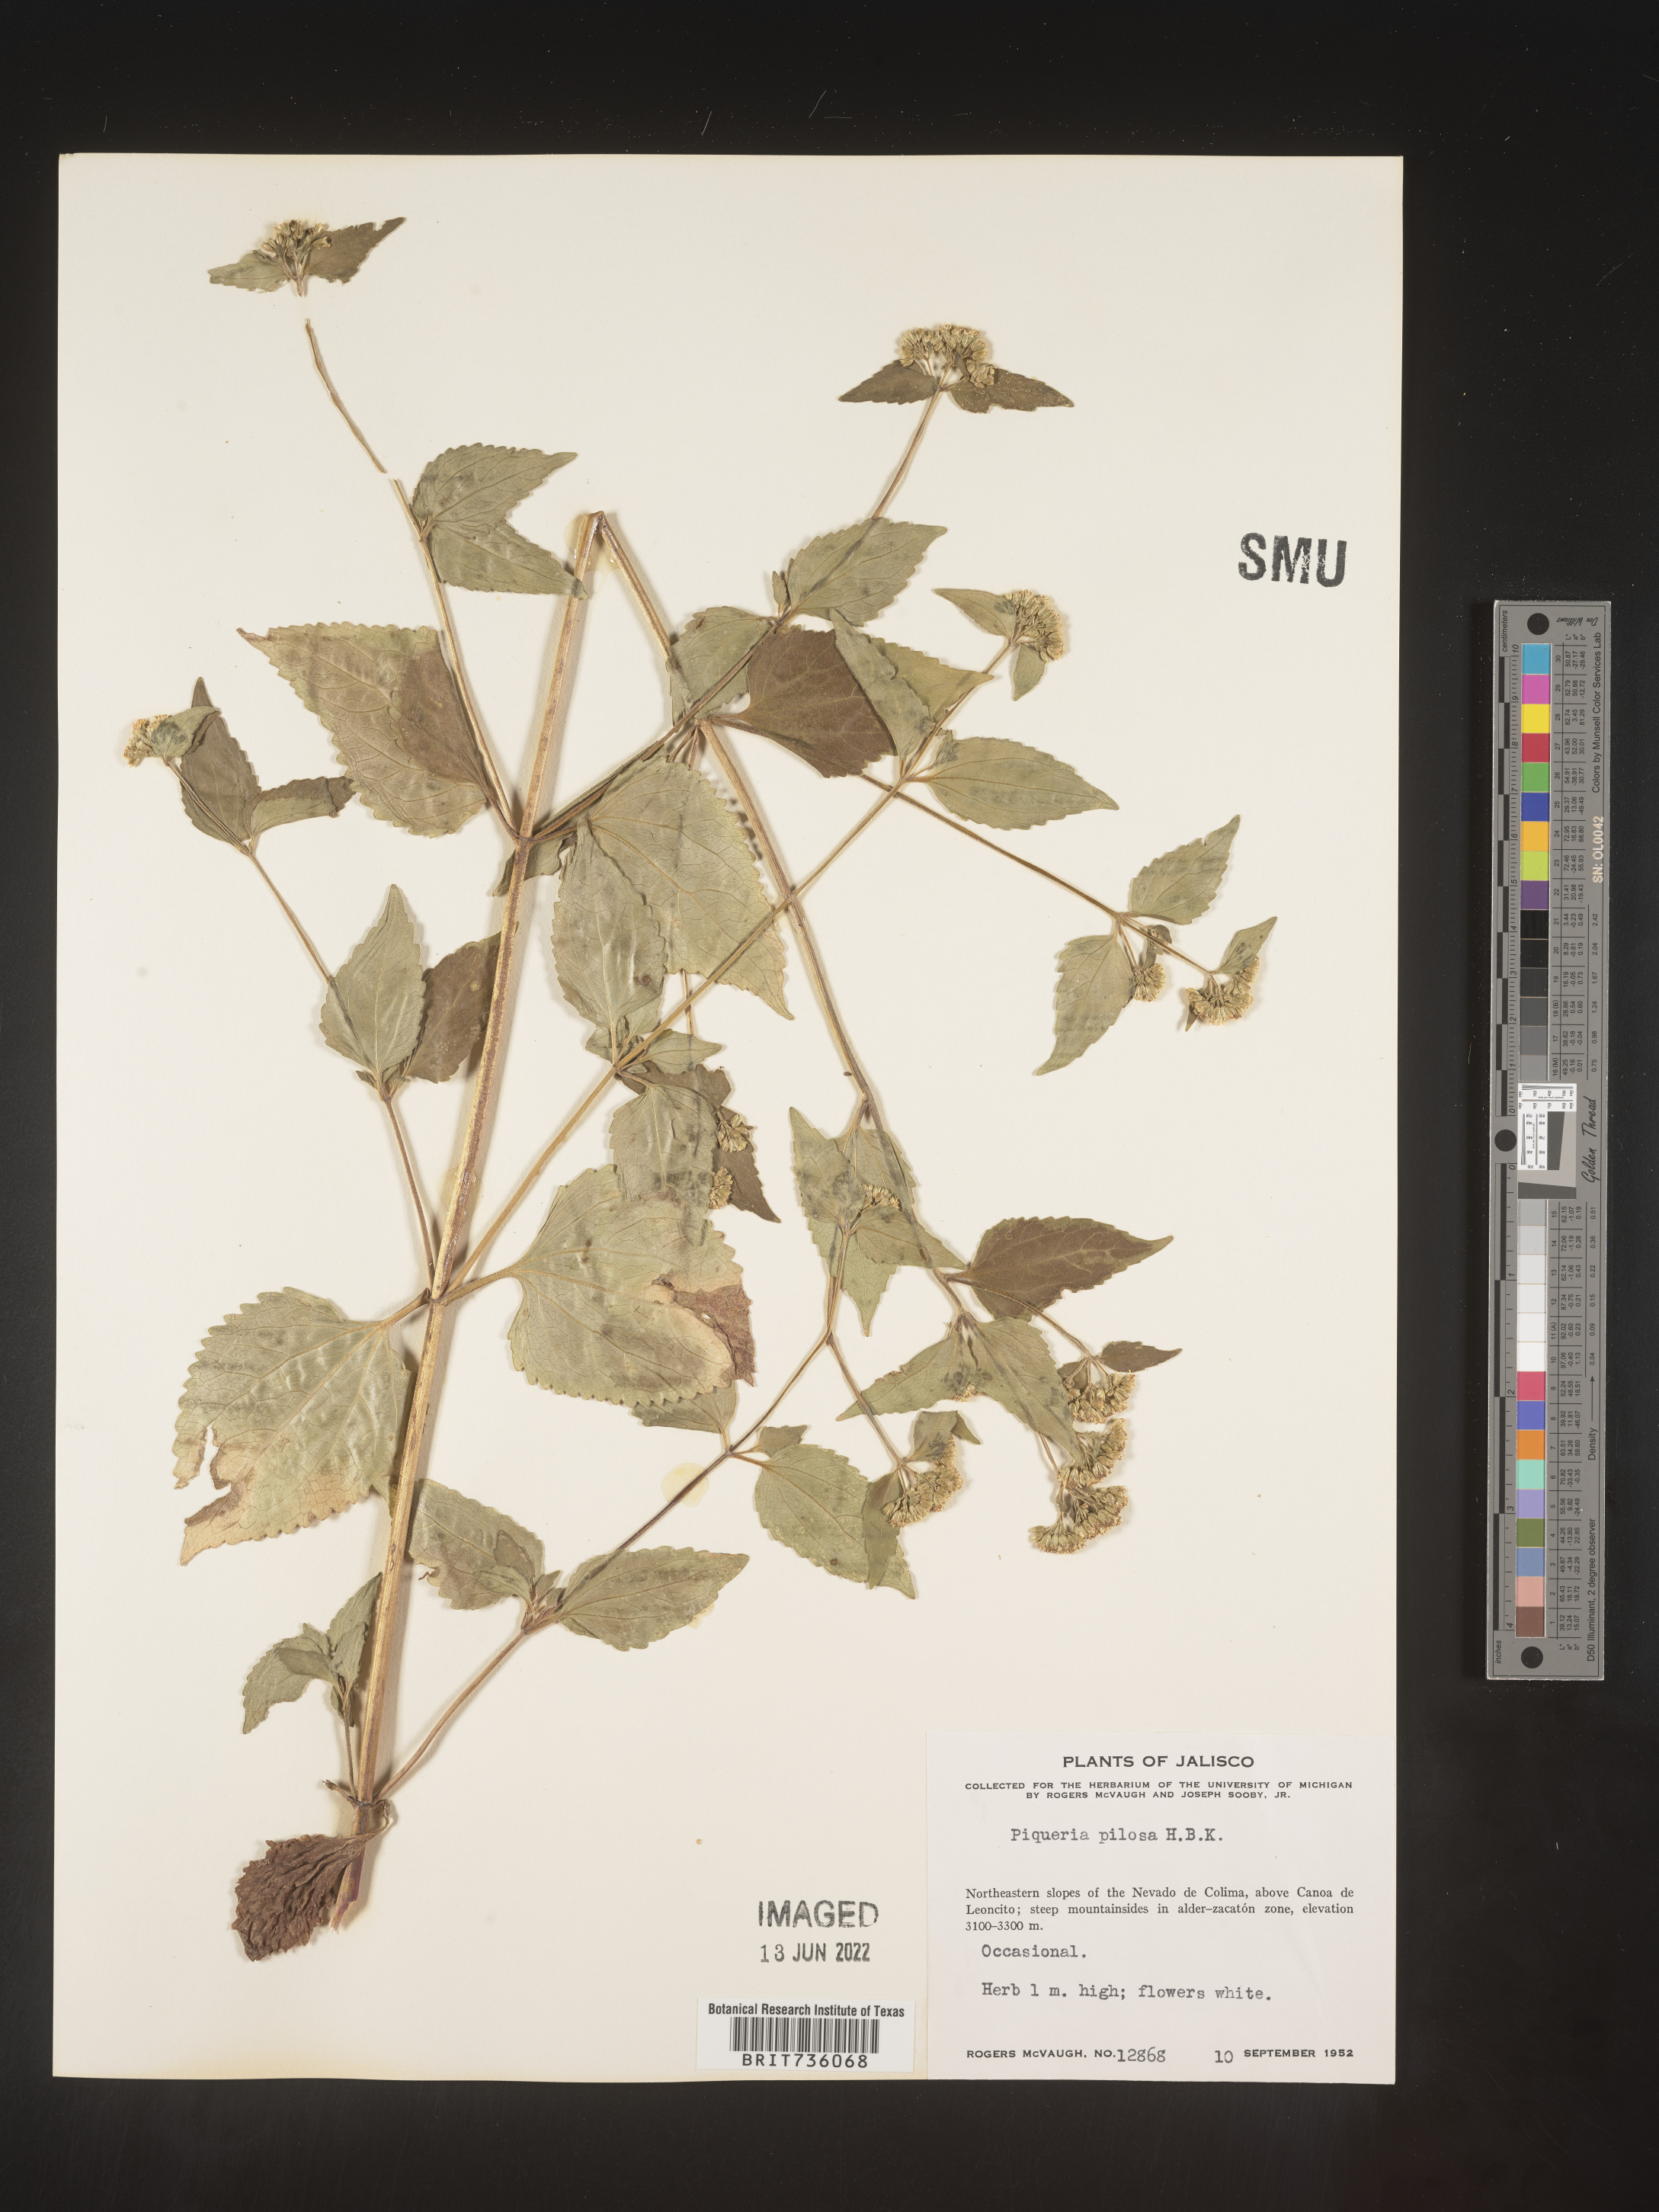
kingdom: Plantae
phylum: Tracheophyta
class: Magnoliopsida
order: Asterales
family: Asteraceae
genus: Piqueria
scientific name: Piqueria
